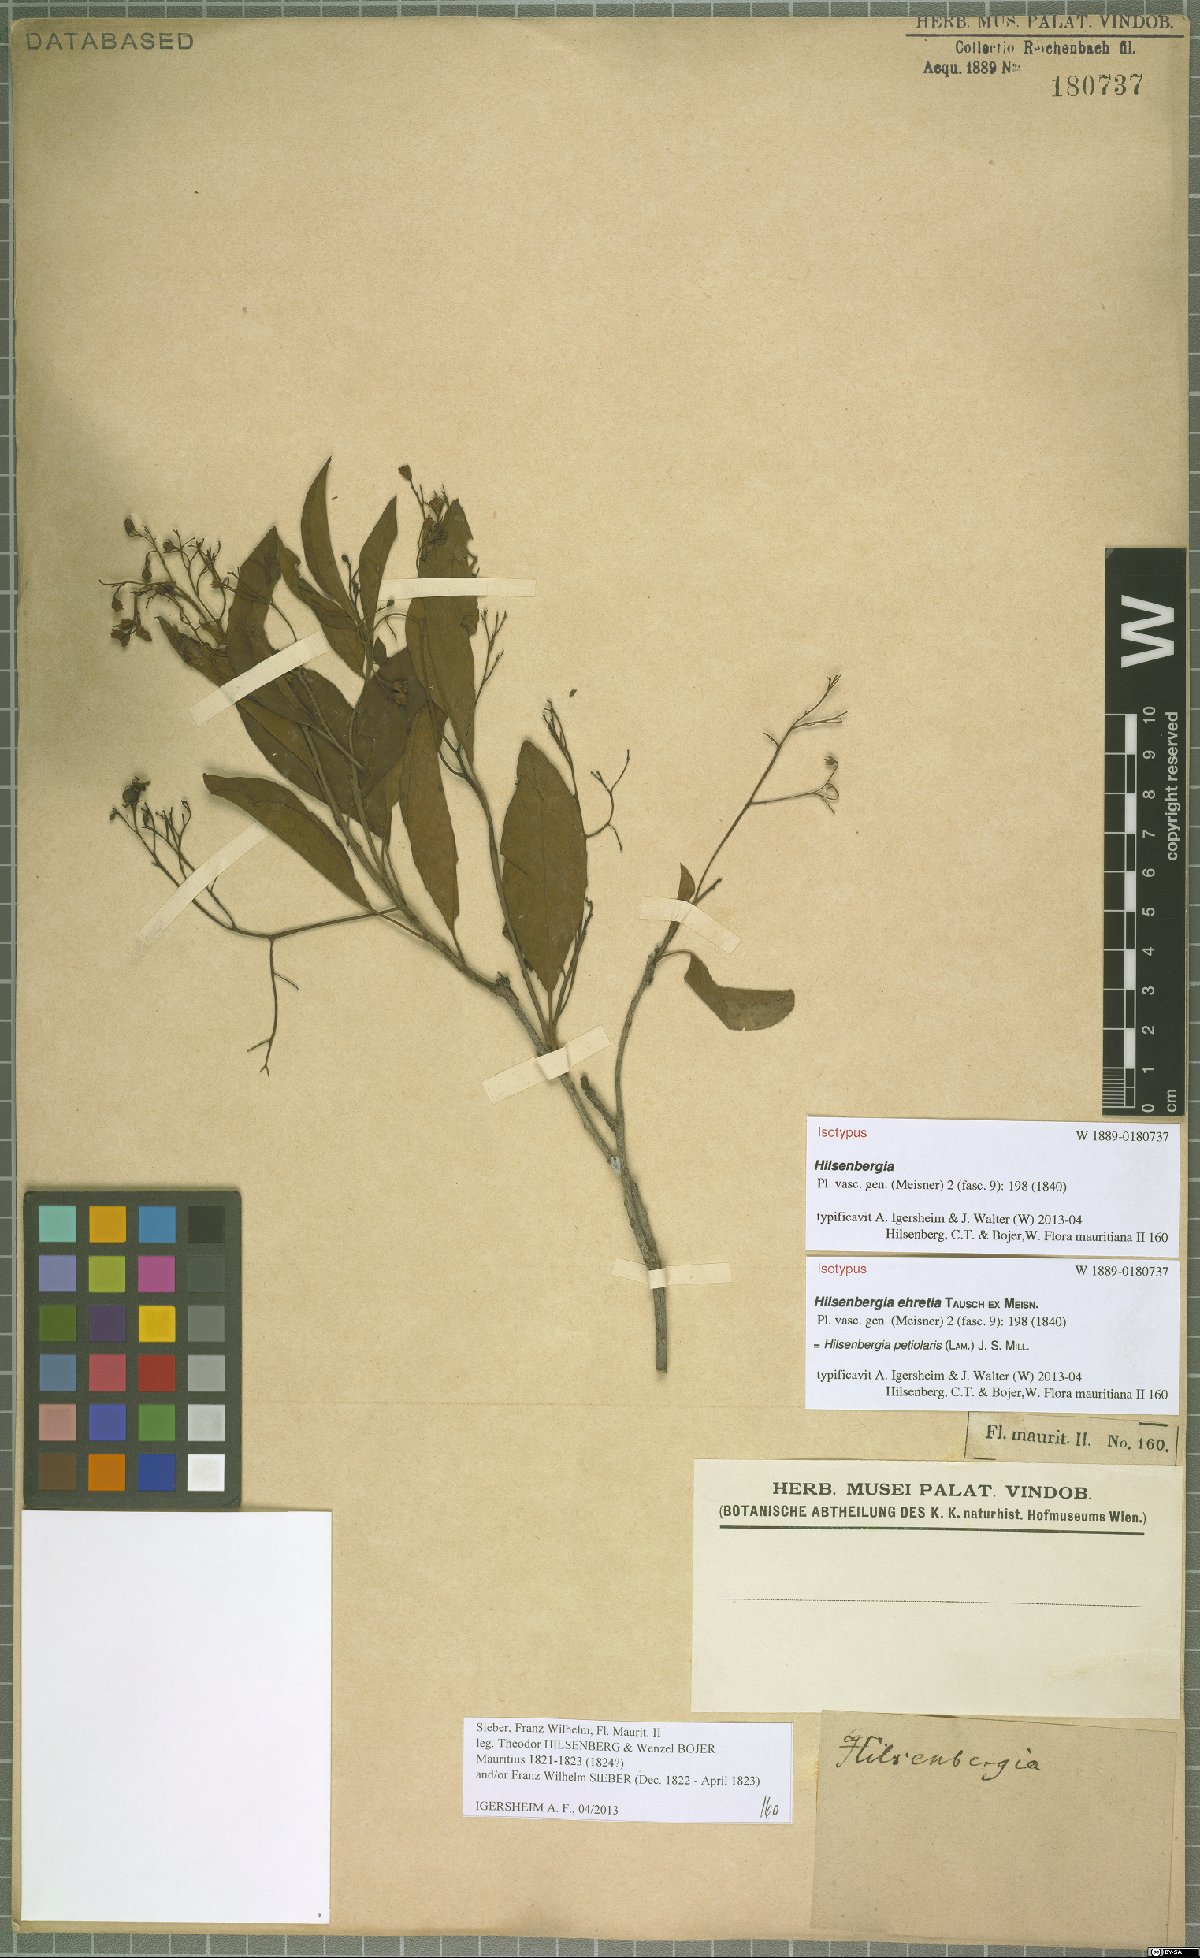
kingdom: Plantae
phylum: Tracheophyta
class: Magnoliopsida
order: Boraginales
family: Ehretiaceae
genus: Bourreria
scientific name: Bourreria petiolaris
